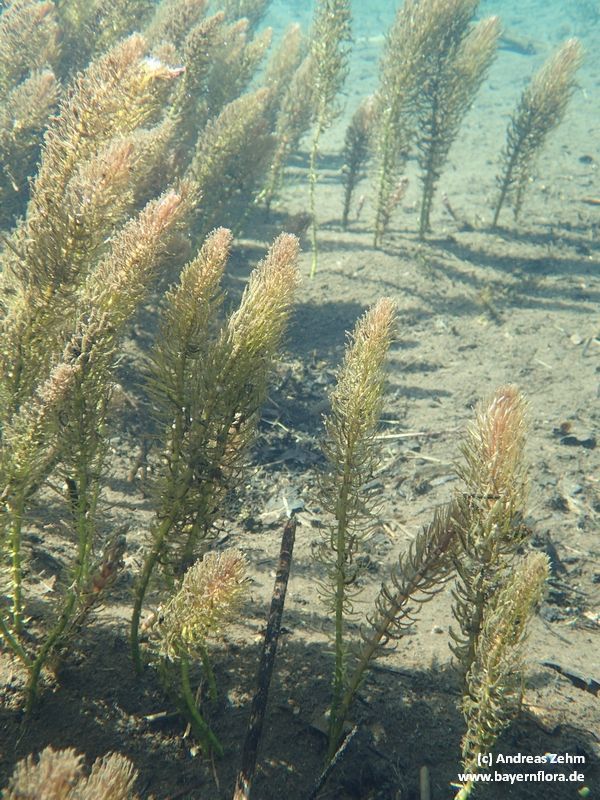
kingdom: Plantae
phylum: Tracheophyta
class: Magnoliopsida
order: Lamiales
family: Plantaginaceae
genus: Hippuris
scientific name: Hippuris vulgaris
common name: Mare's-tail
